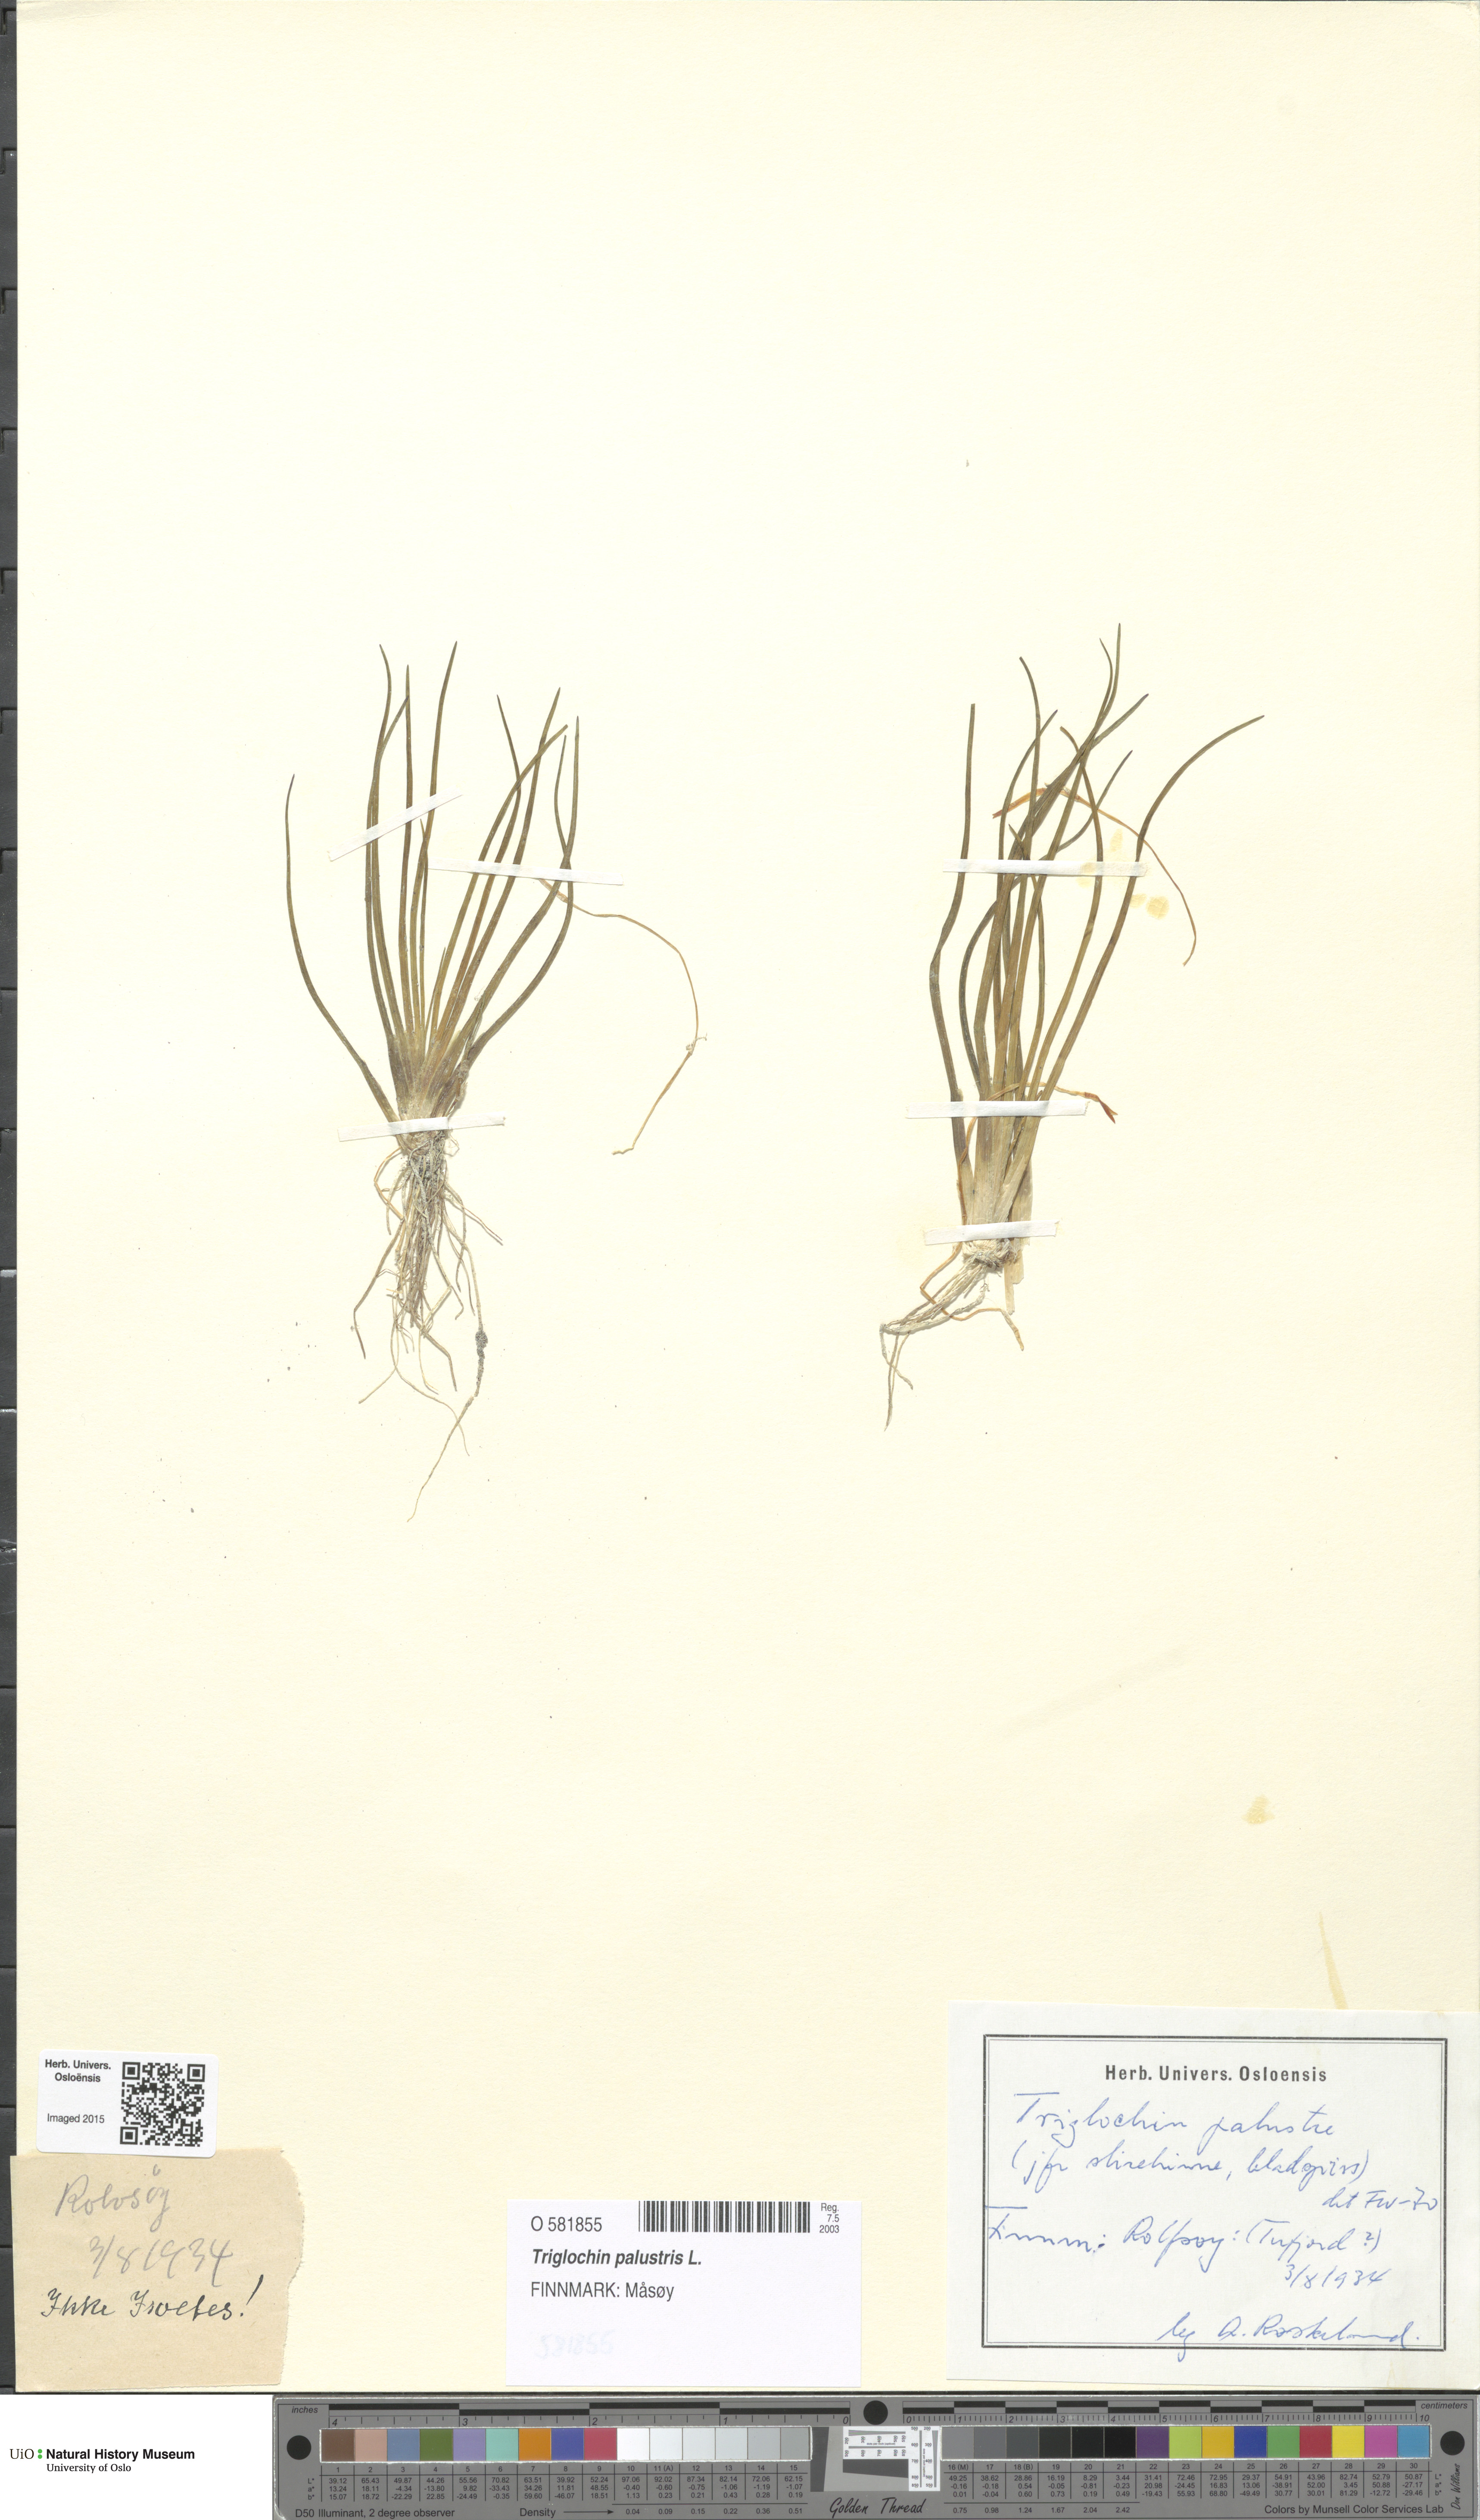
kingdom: Plantae
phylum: Tracheophyta
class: Liliopsida
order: Alismatales
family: Juncaginaceae
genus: Triglochin
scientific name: Triglochin palustris
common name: Marsh arrowgrass
